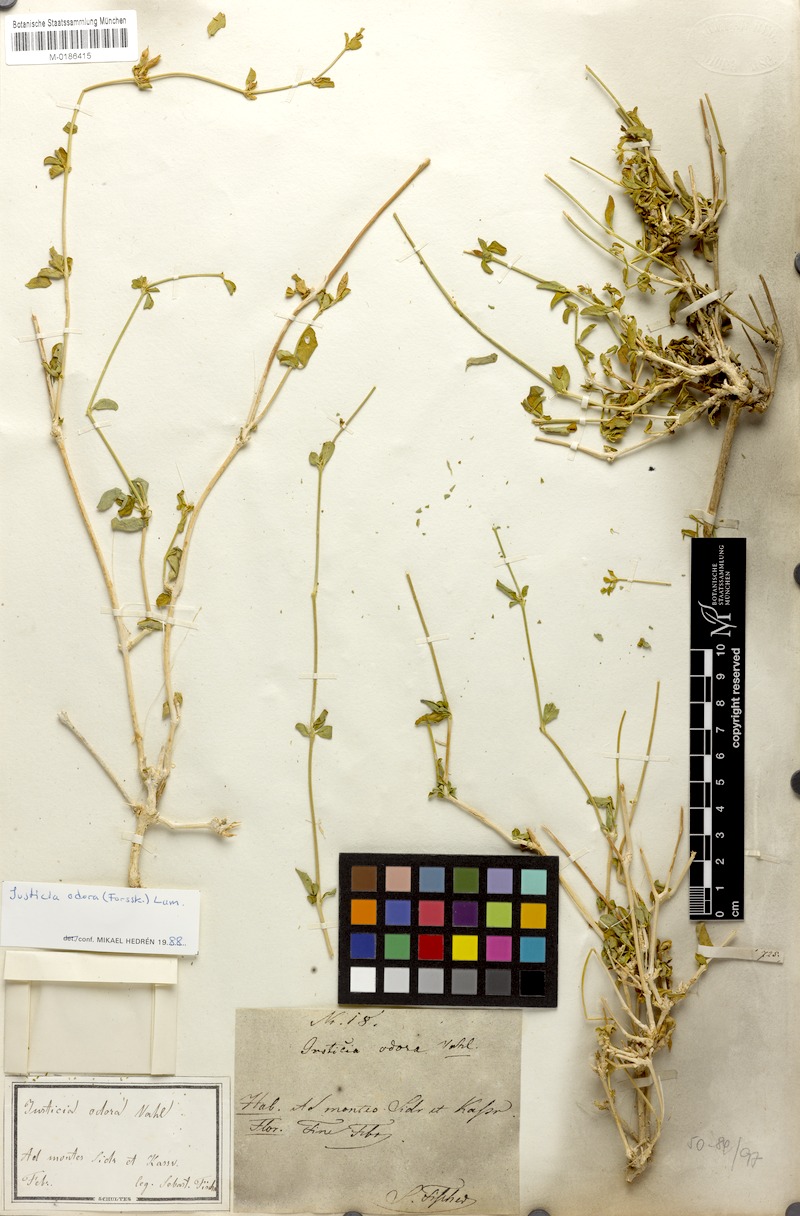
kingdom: Plantae
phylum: Tracheophyta
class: Magnoliopsida
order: Lamiales
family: Acanthaceae
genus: Justicia
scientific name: Justicia odora
